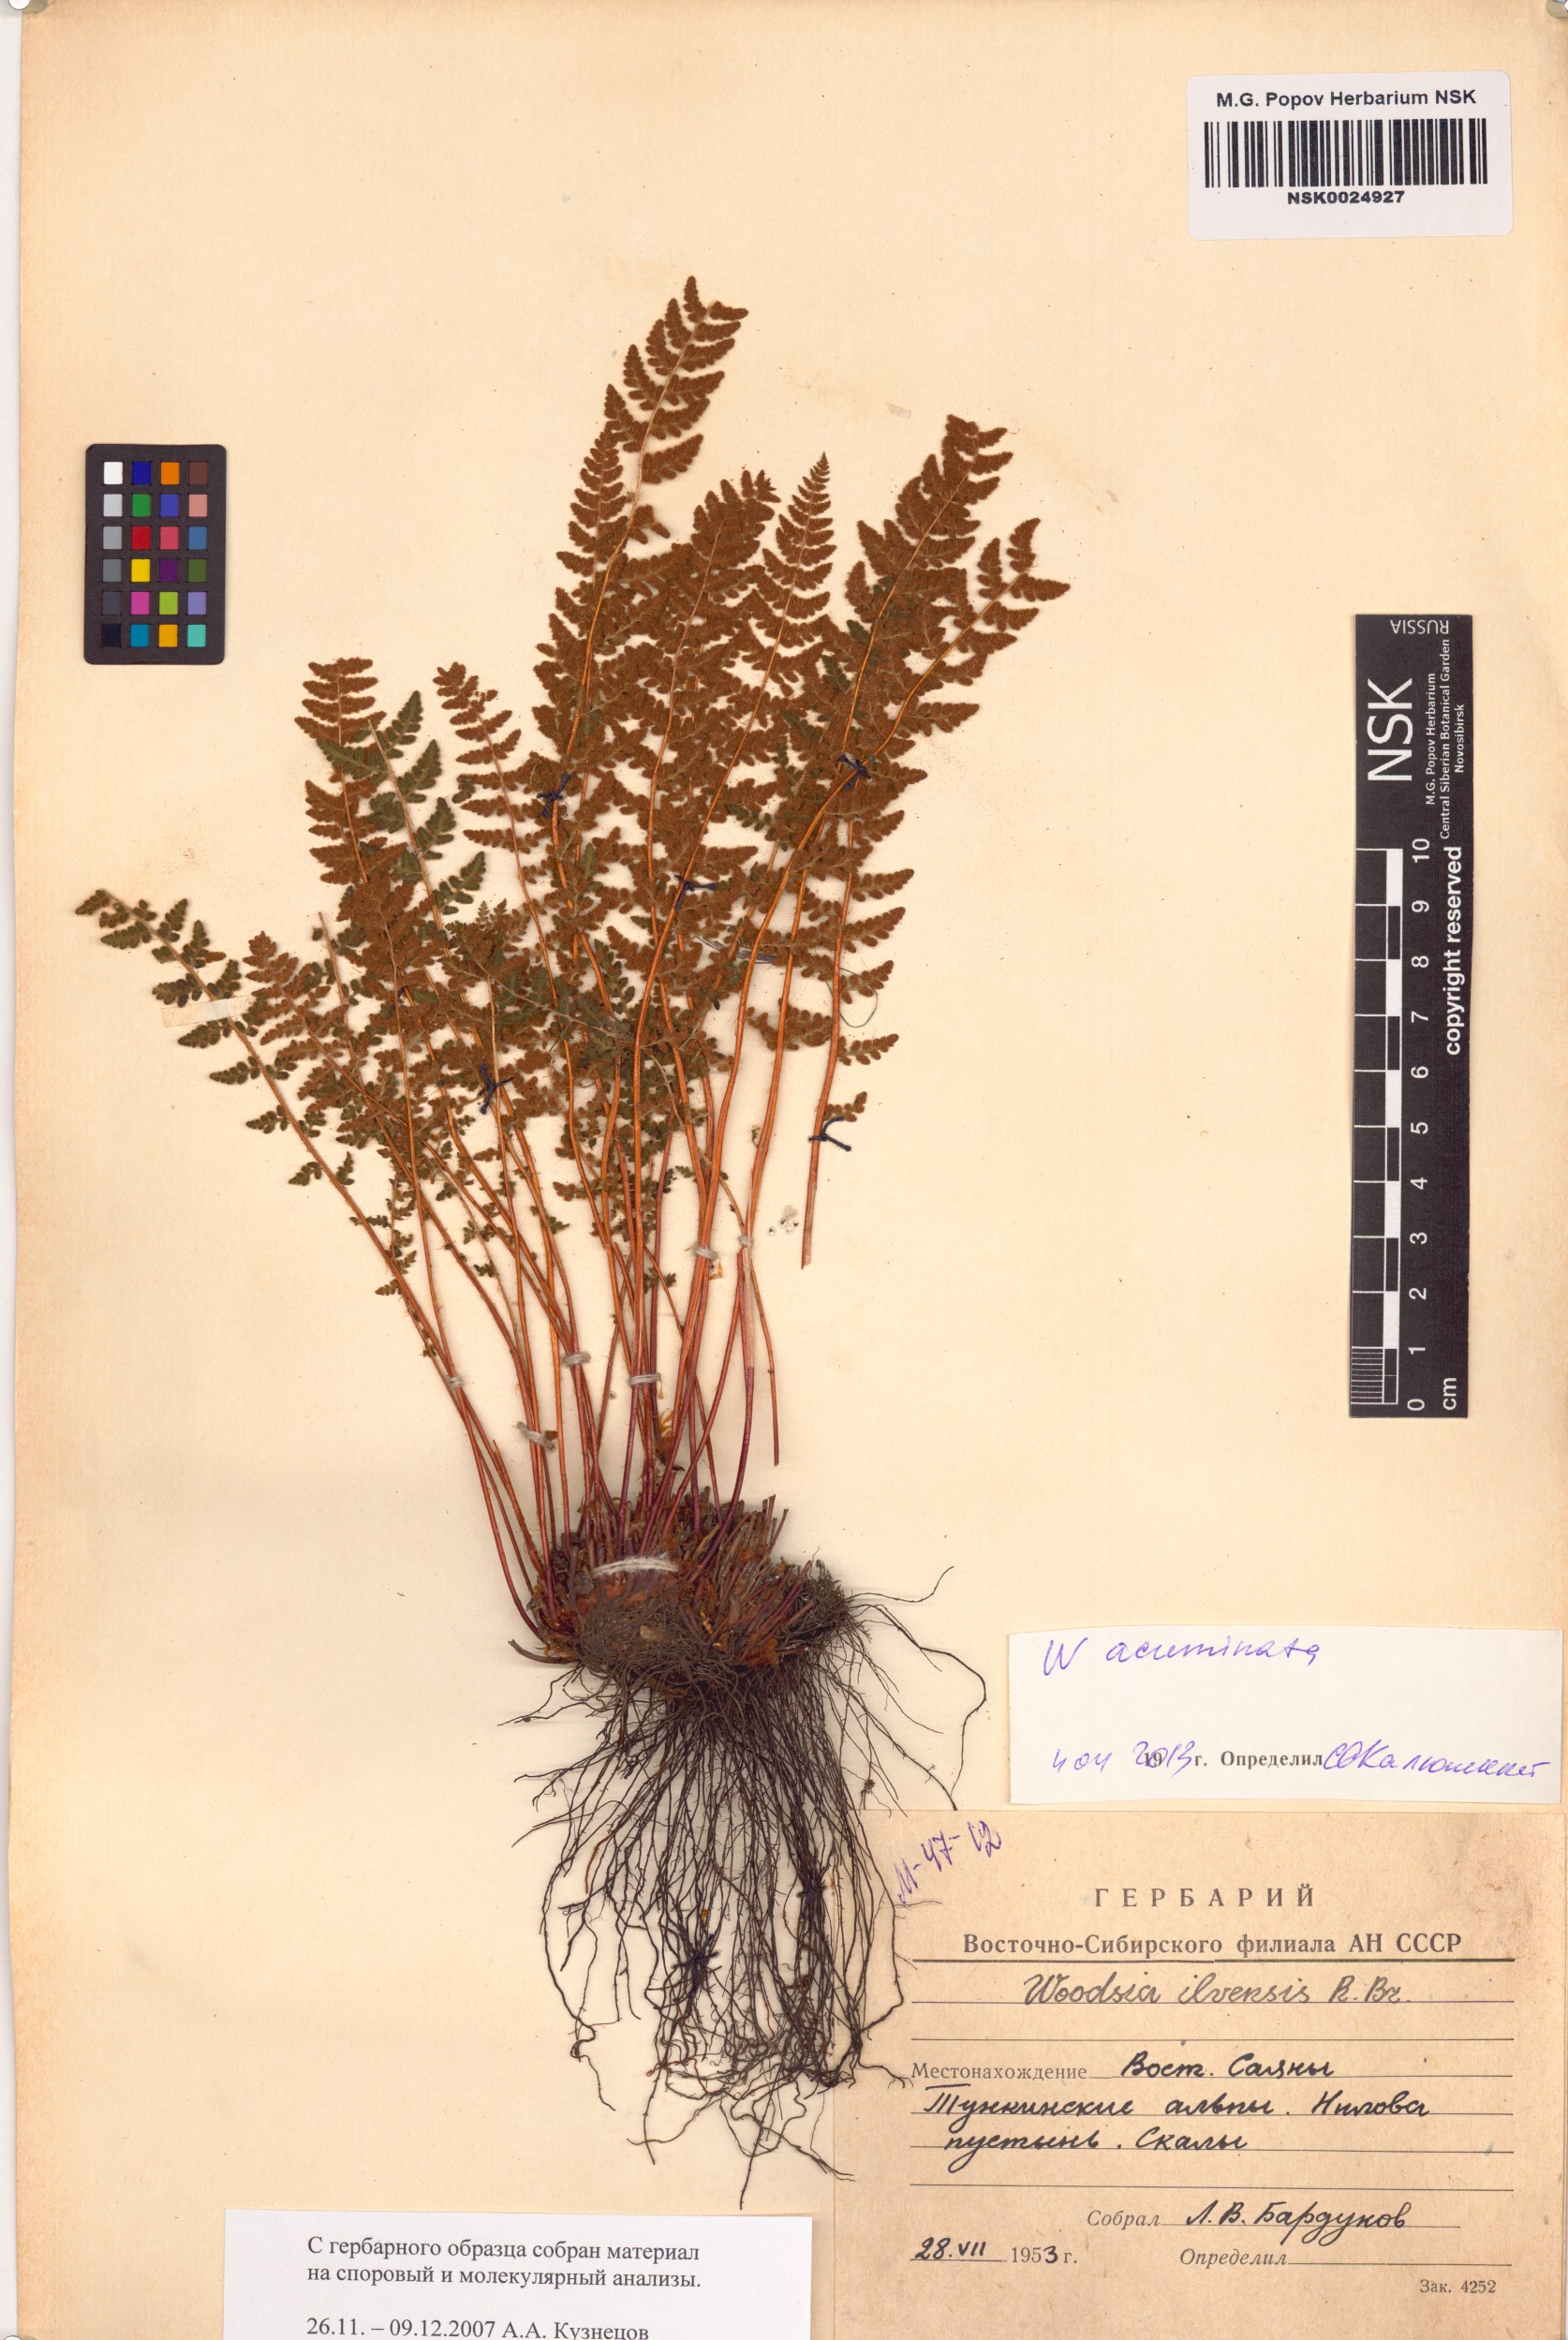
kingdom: Plantae
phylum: Tracheophyta
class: Polypodiopsida
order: Polypodiales
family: Woodsiaceae
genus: Woodsia
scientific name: Woodsia ilvensis
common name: Fragrant woodsia
